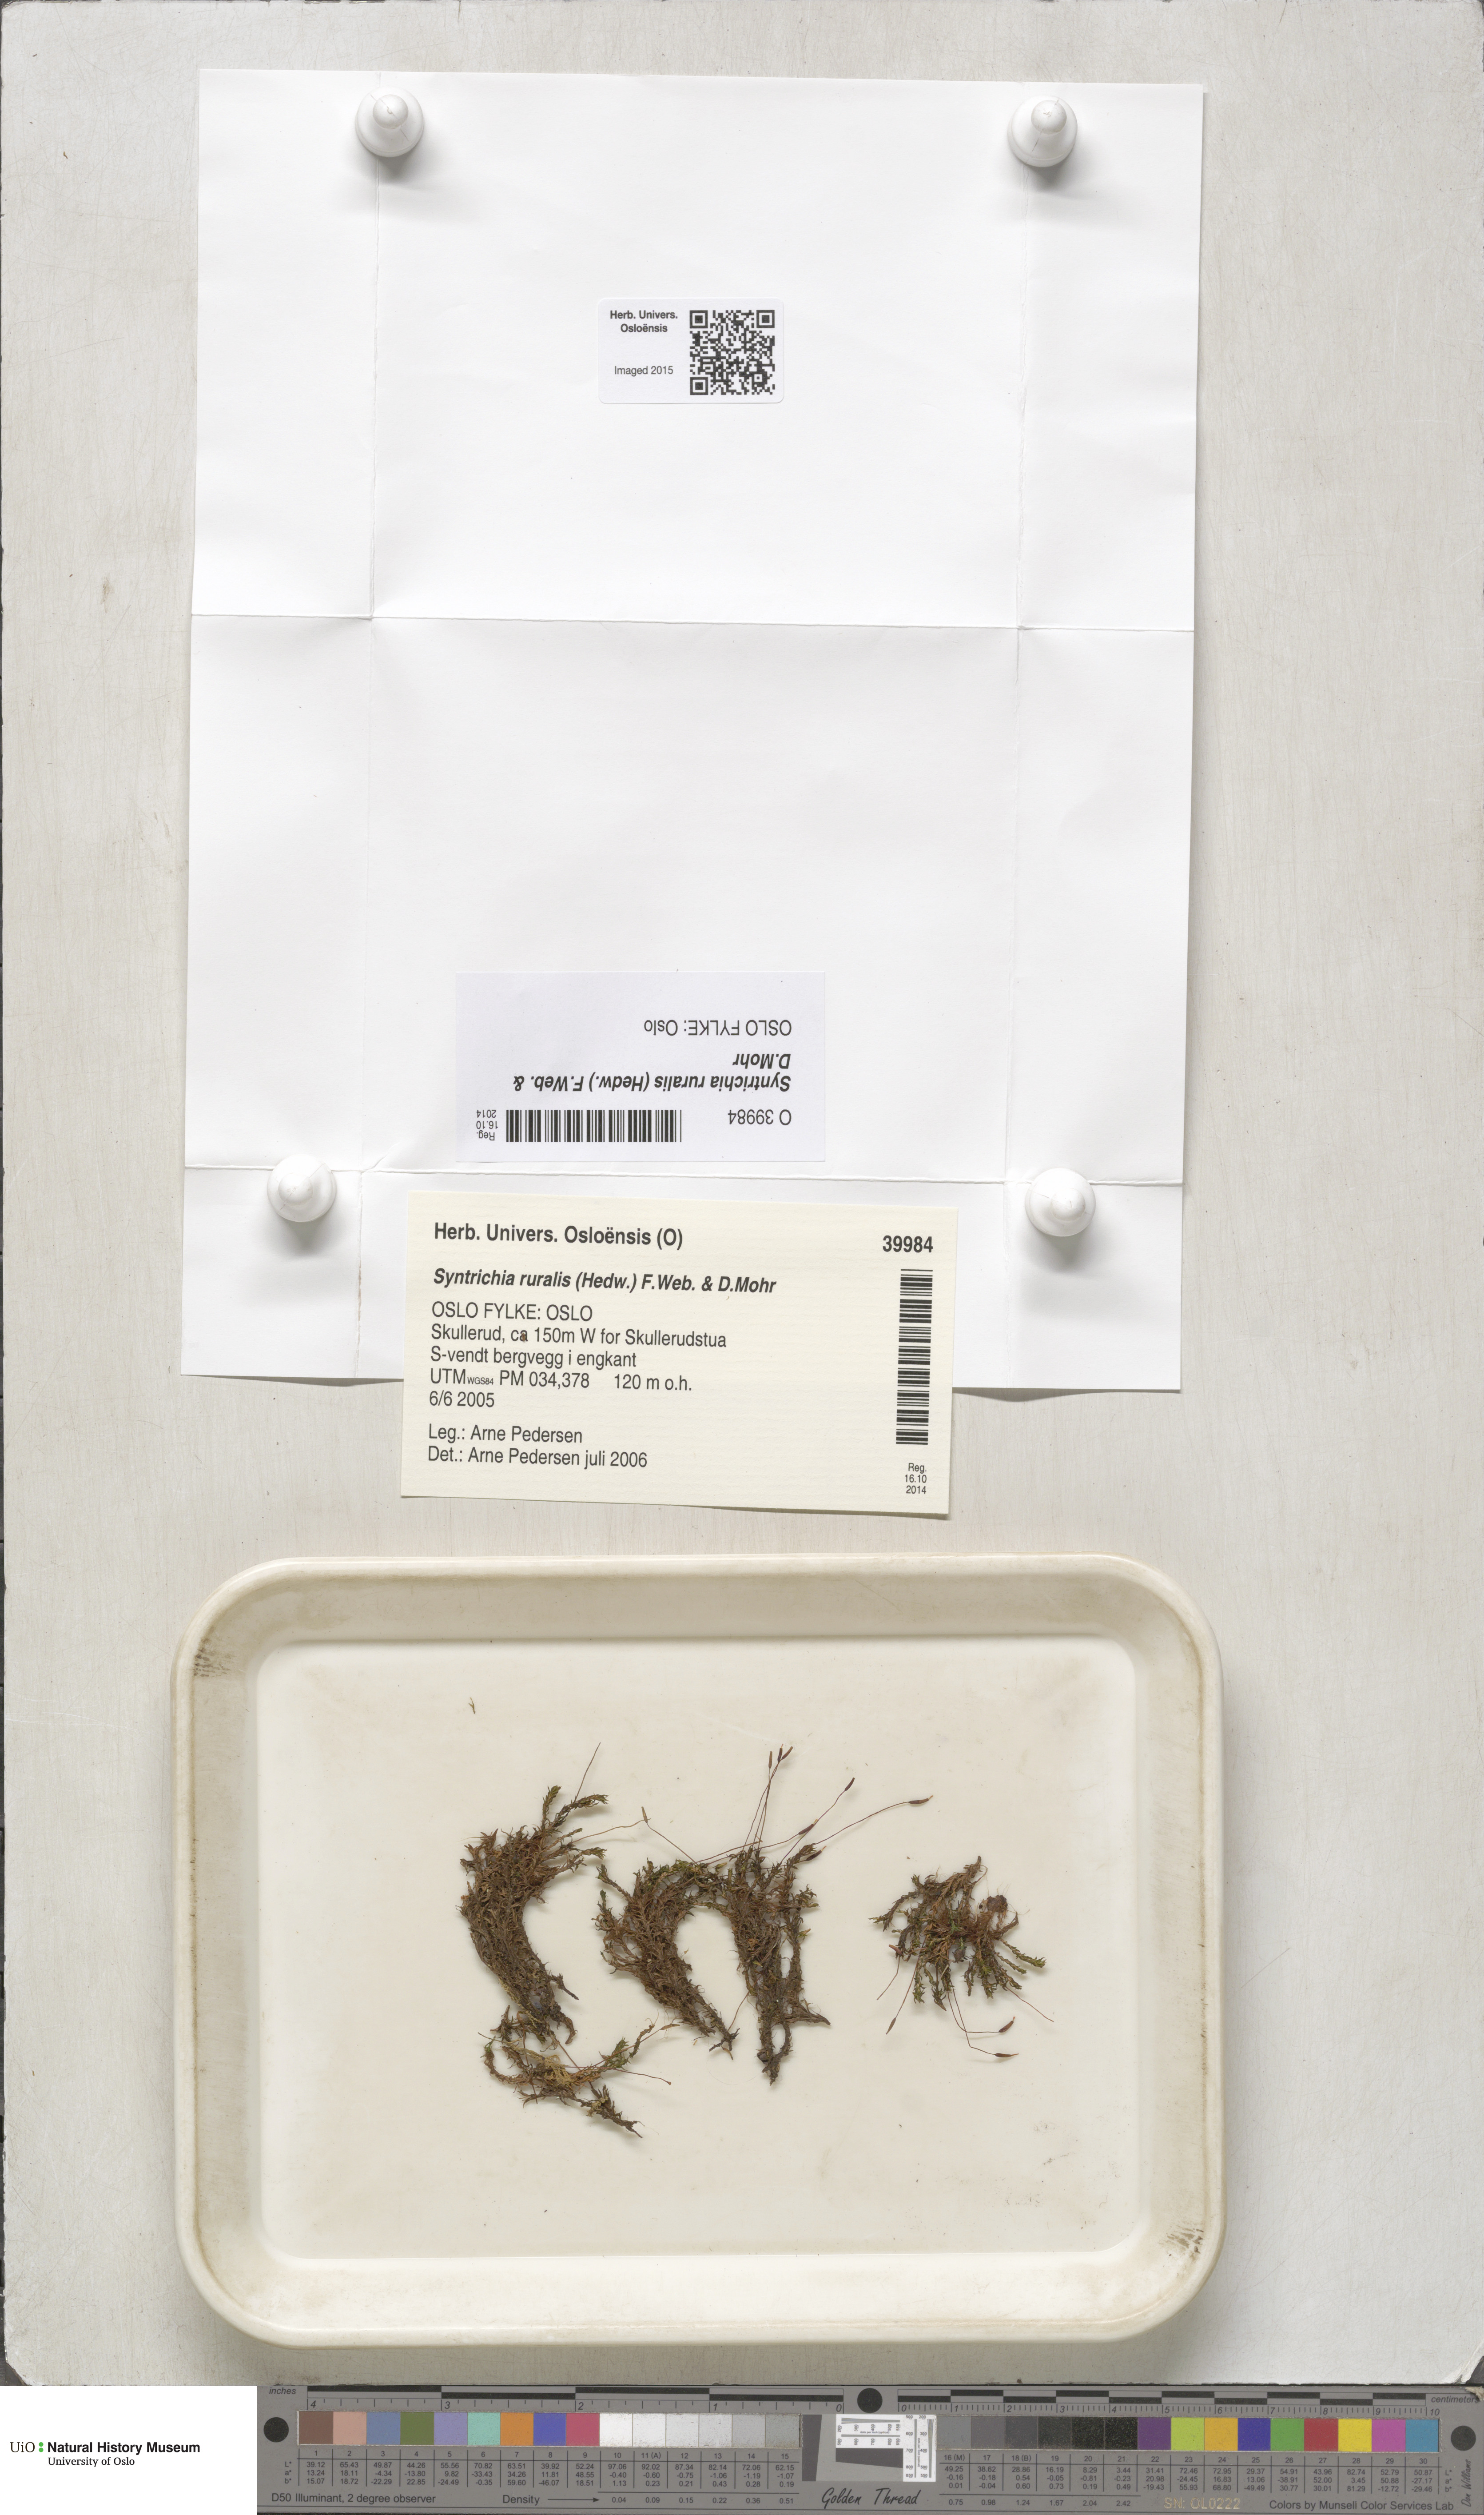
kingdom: Plantae
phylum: Bryophyta
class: Bryopsida
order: Pottiales
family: Pottiaceae
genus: Syntrichia
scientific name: Syntrichia ruralis
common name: Sidewalk screw moss
